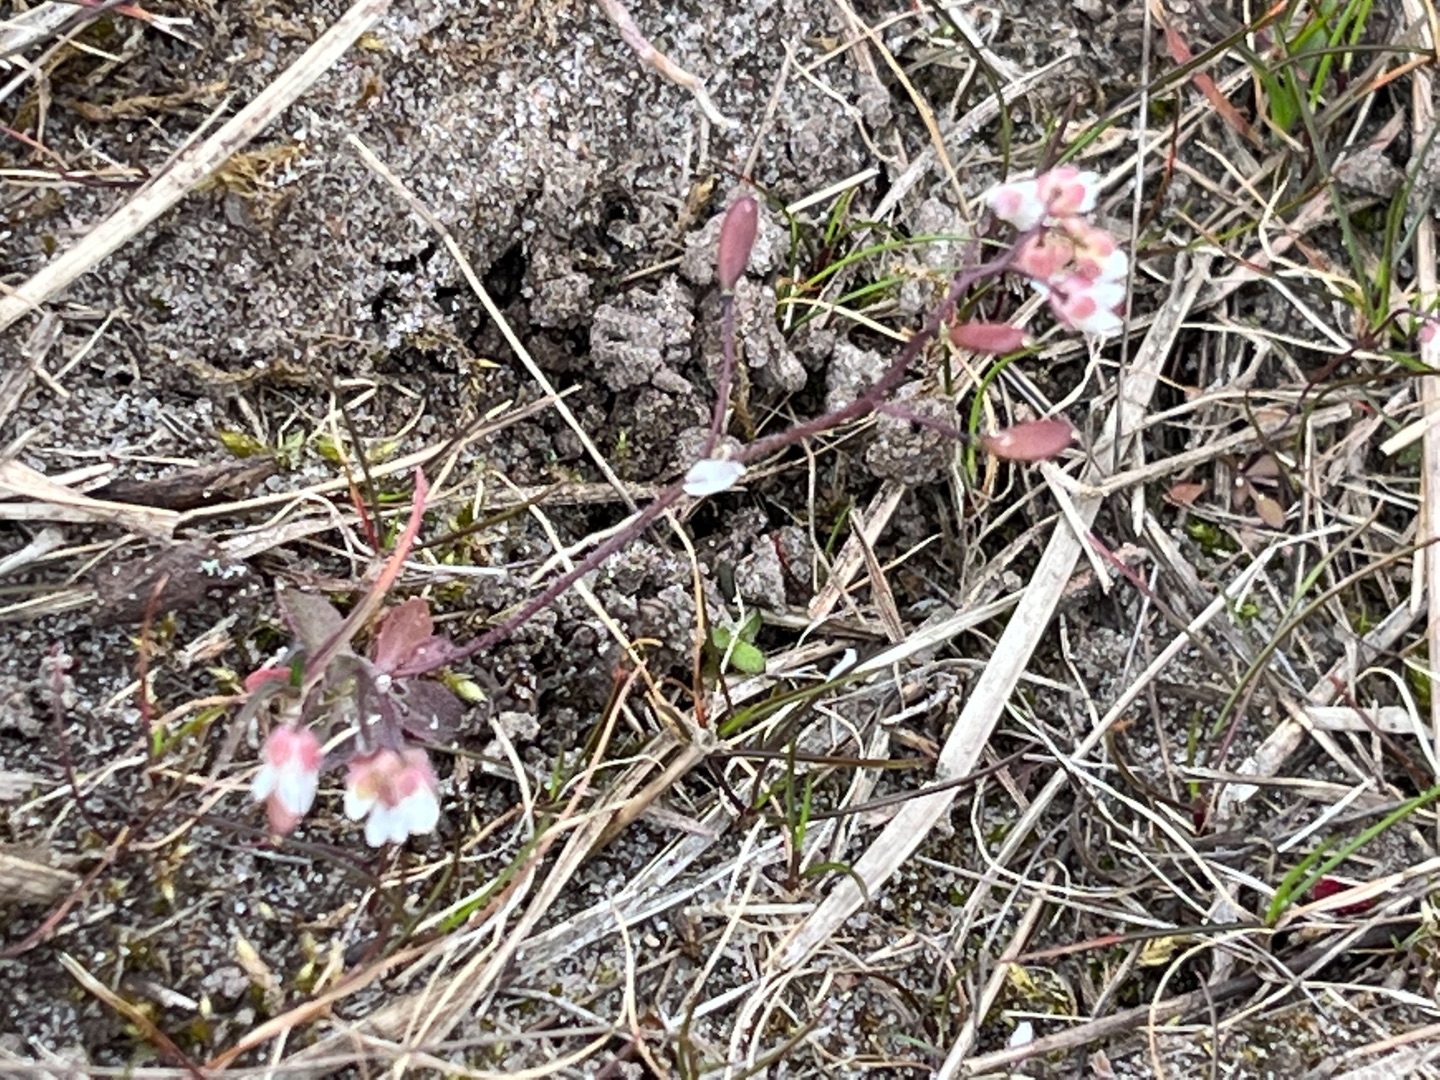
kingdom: Plantae
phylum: Tracheophyta
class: Magnoliopsida
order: Brassicales
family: Brassicaceae
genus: Draba
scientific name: Draba verna
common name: Vår-gæslingeblomst
